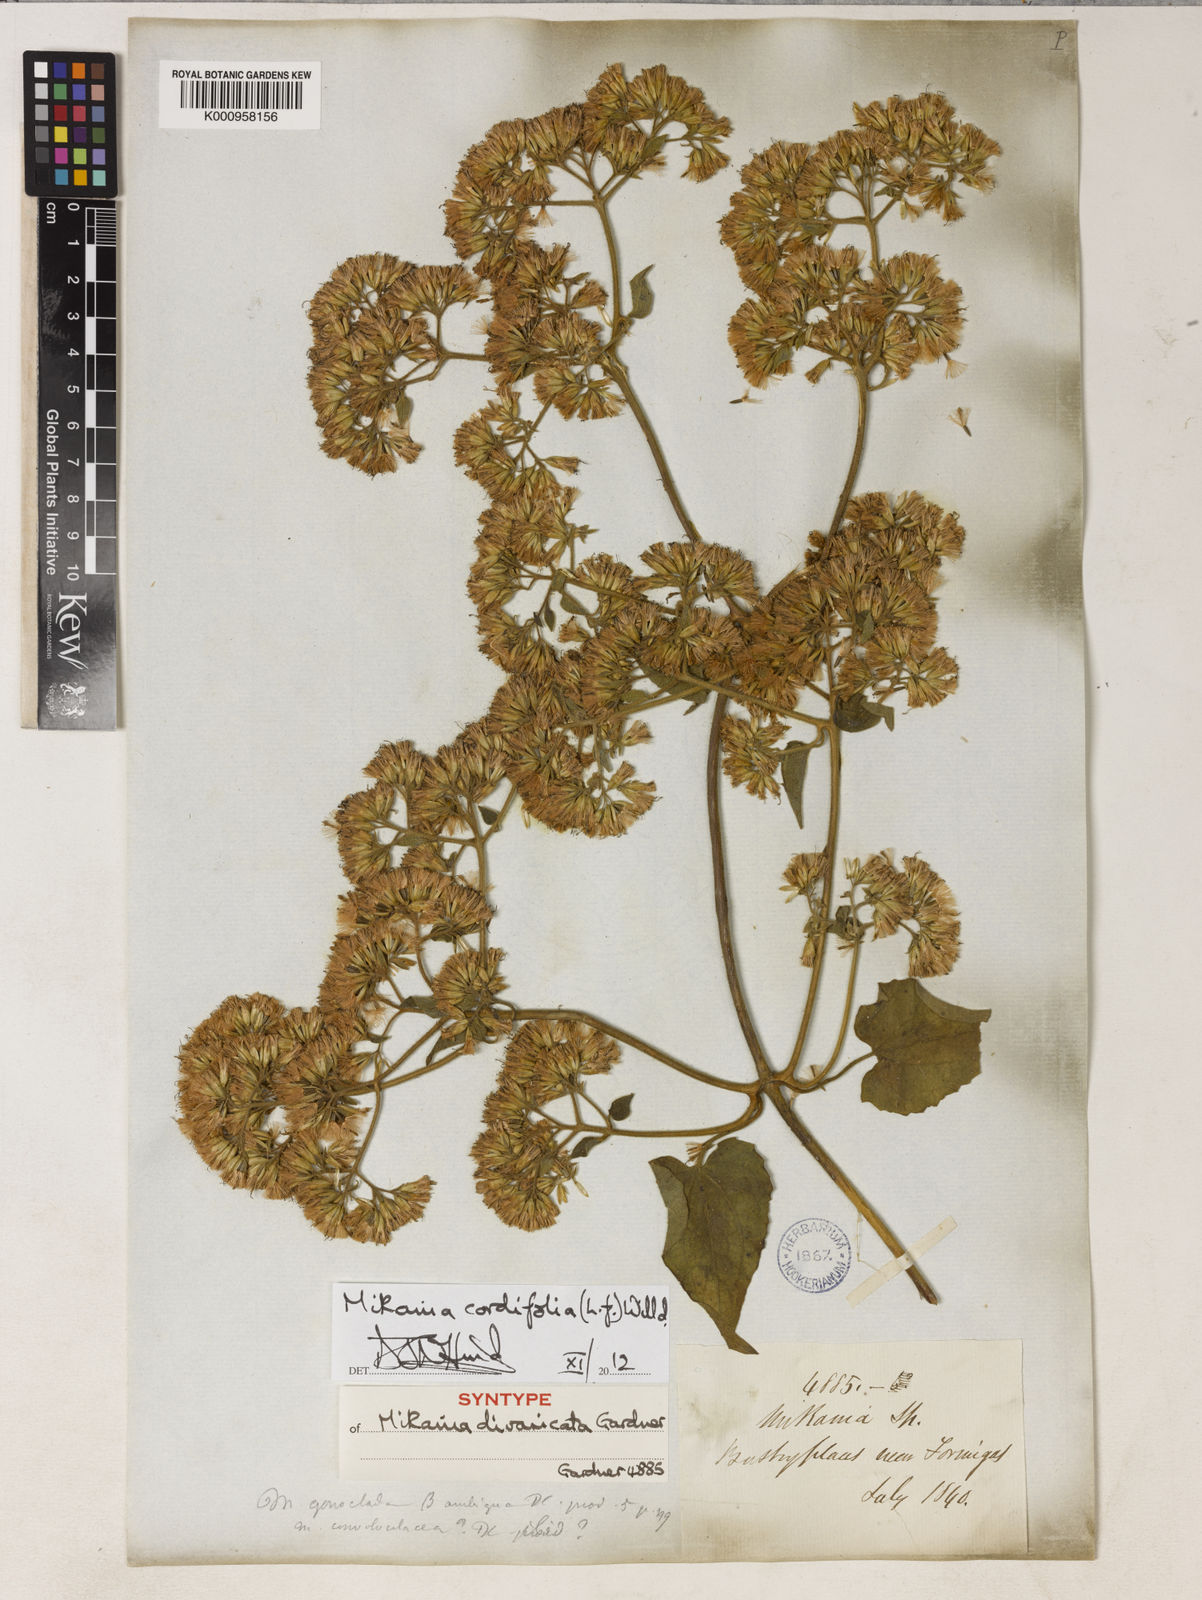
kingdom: Plantae
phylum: Tracheophyta
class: Magnoliopsida
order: Asterales
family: Asteraceae
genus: Mikania
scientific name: Mikania cordifolia
